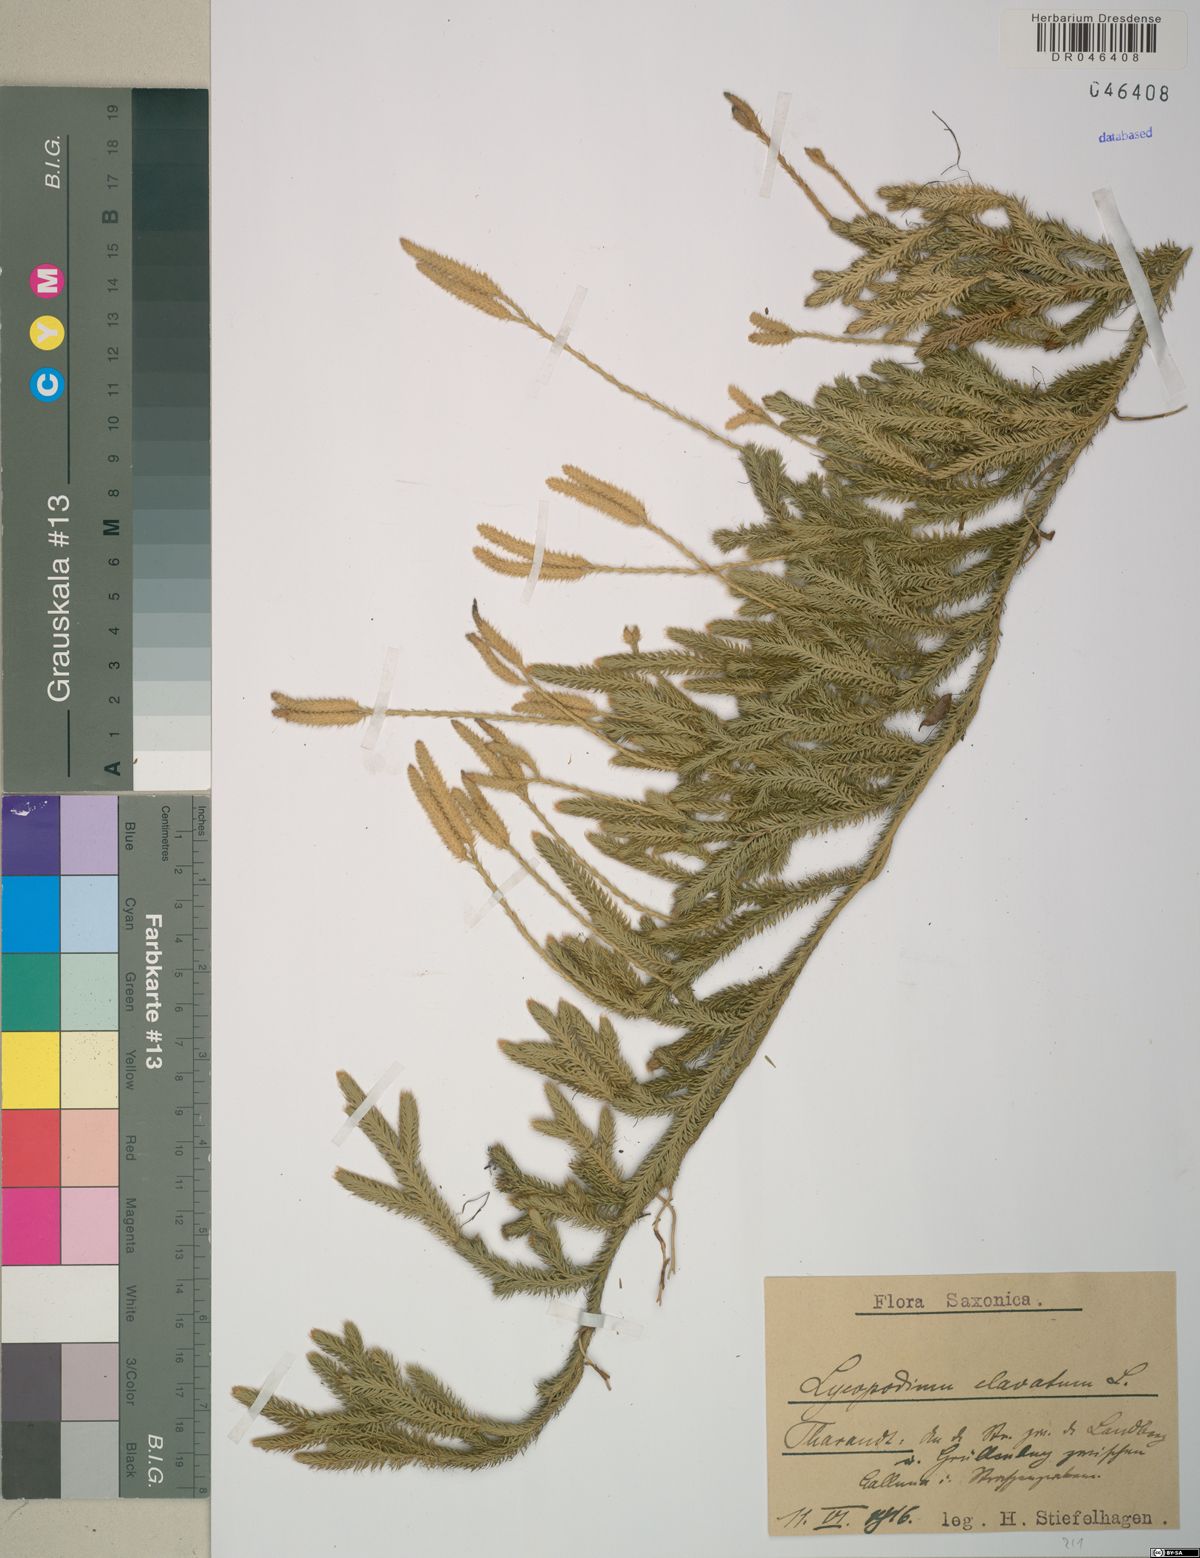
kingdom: Plantae
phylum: Tracheophyta
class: Lycopodiopsida
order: Lycopodiales
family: Lycopodiaceae
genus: Lycopodium
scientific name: Lycopodium clavatum
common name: Stag's-horn clubmoss
